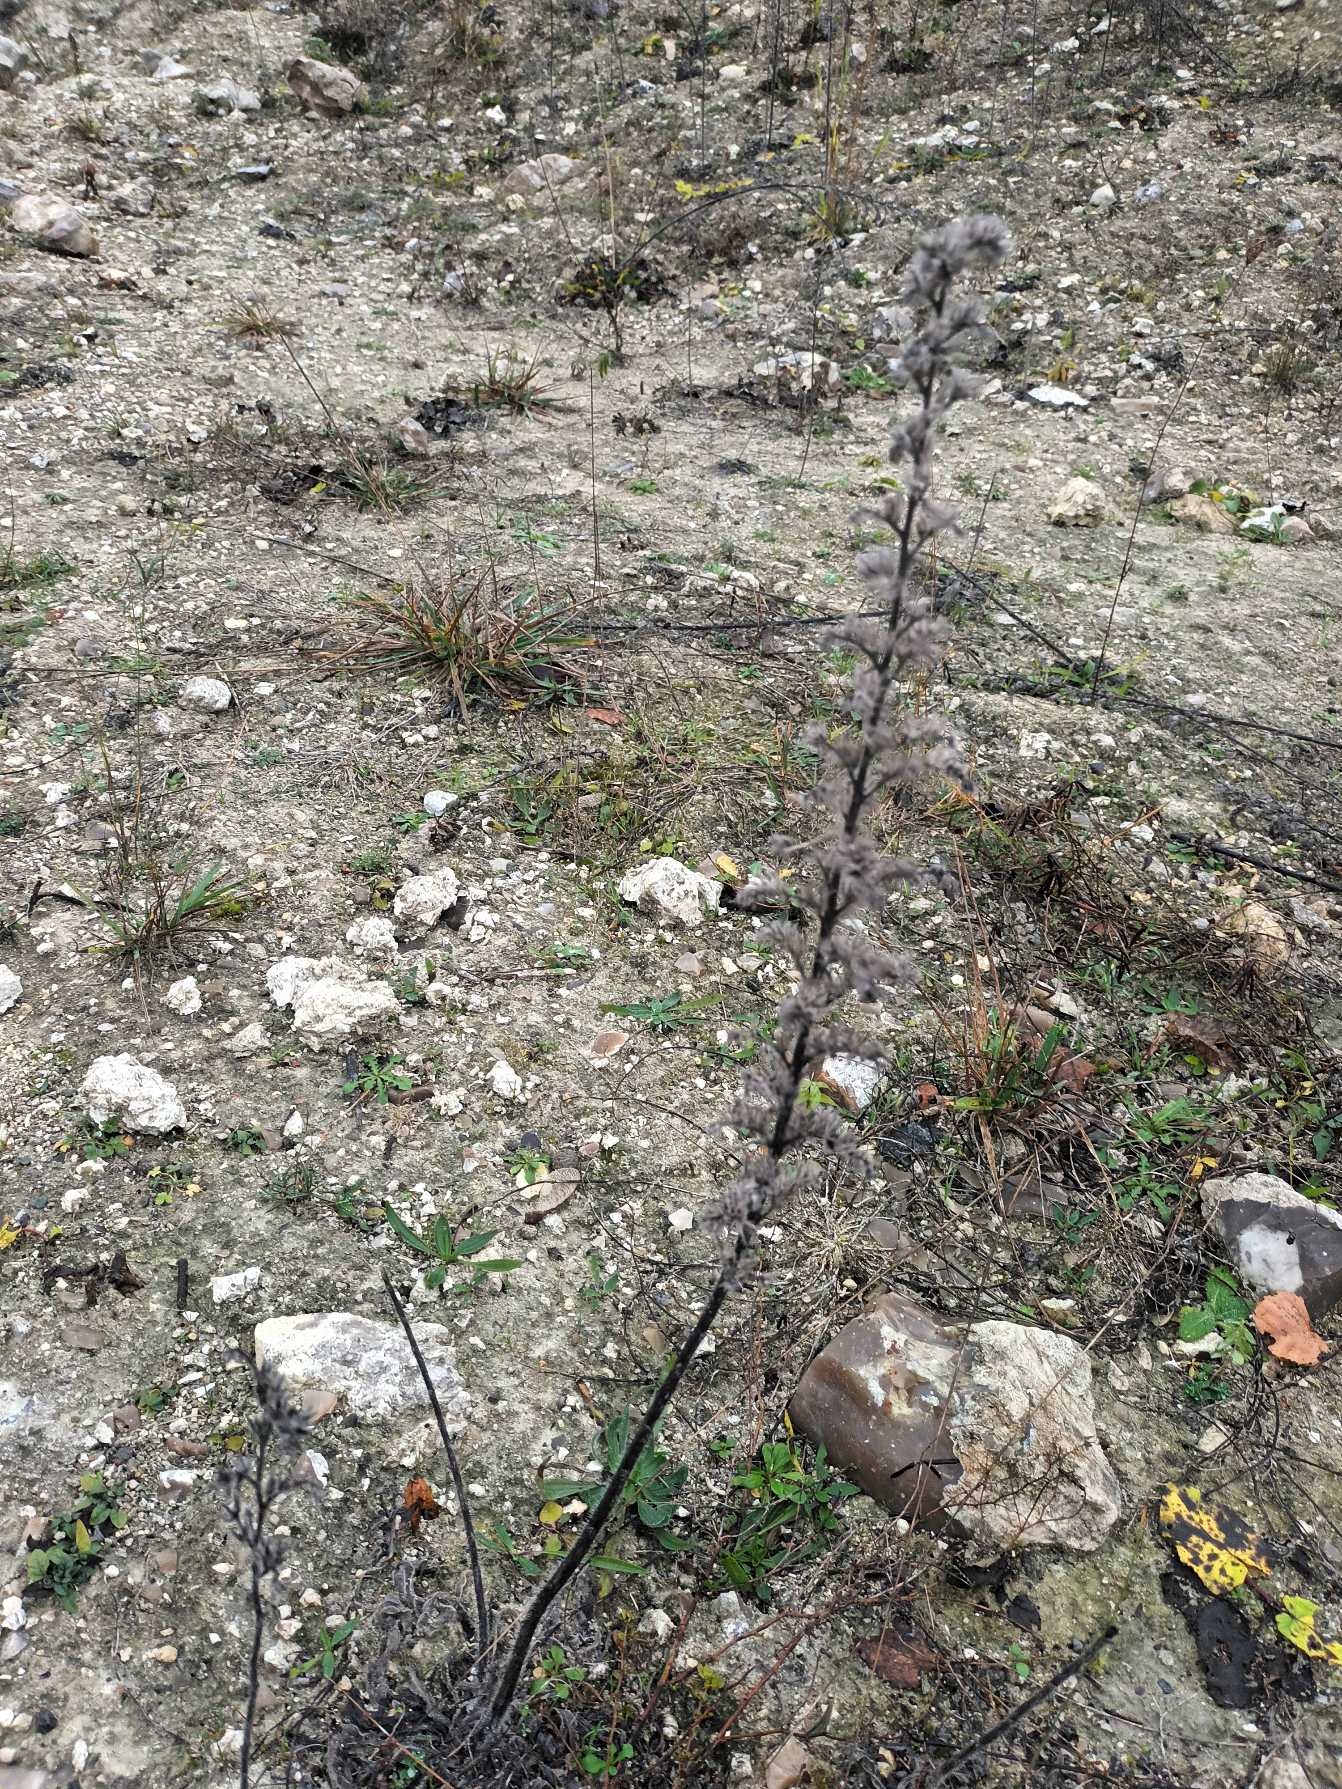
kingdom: Plantae
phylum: Tracheophyta
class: Magnoliopsida
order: Boraginales
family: Boraginaceae
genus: Echium
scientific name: Echium vulgare
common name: Slangehoved
